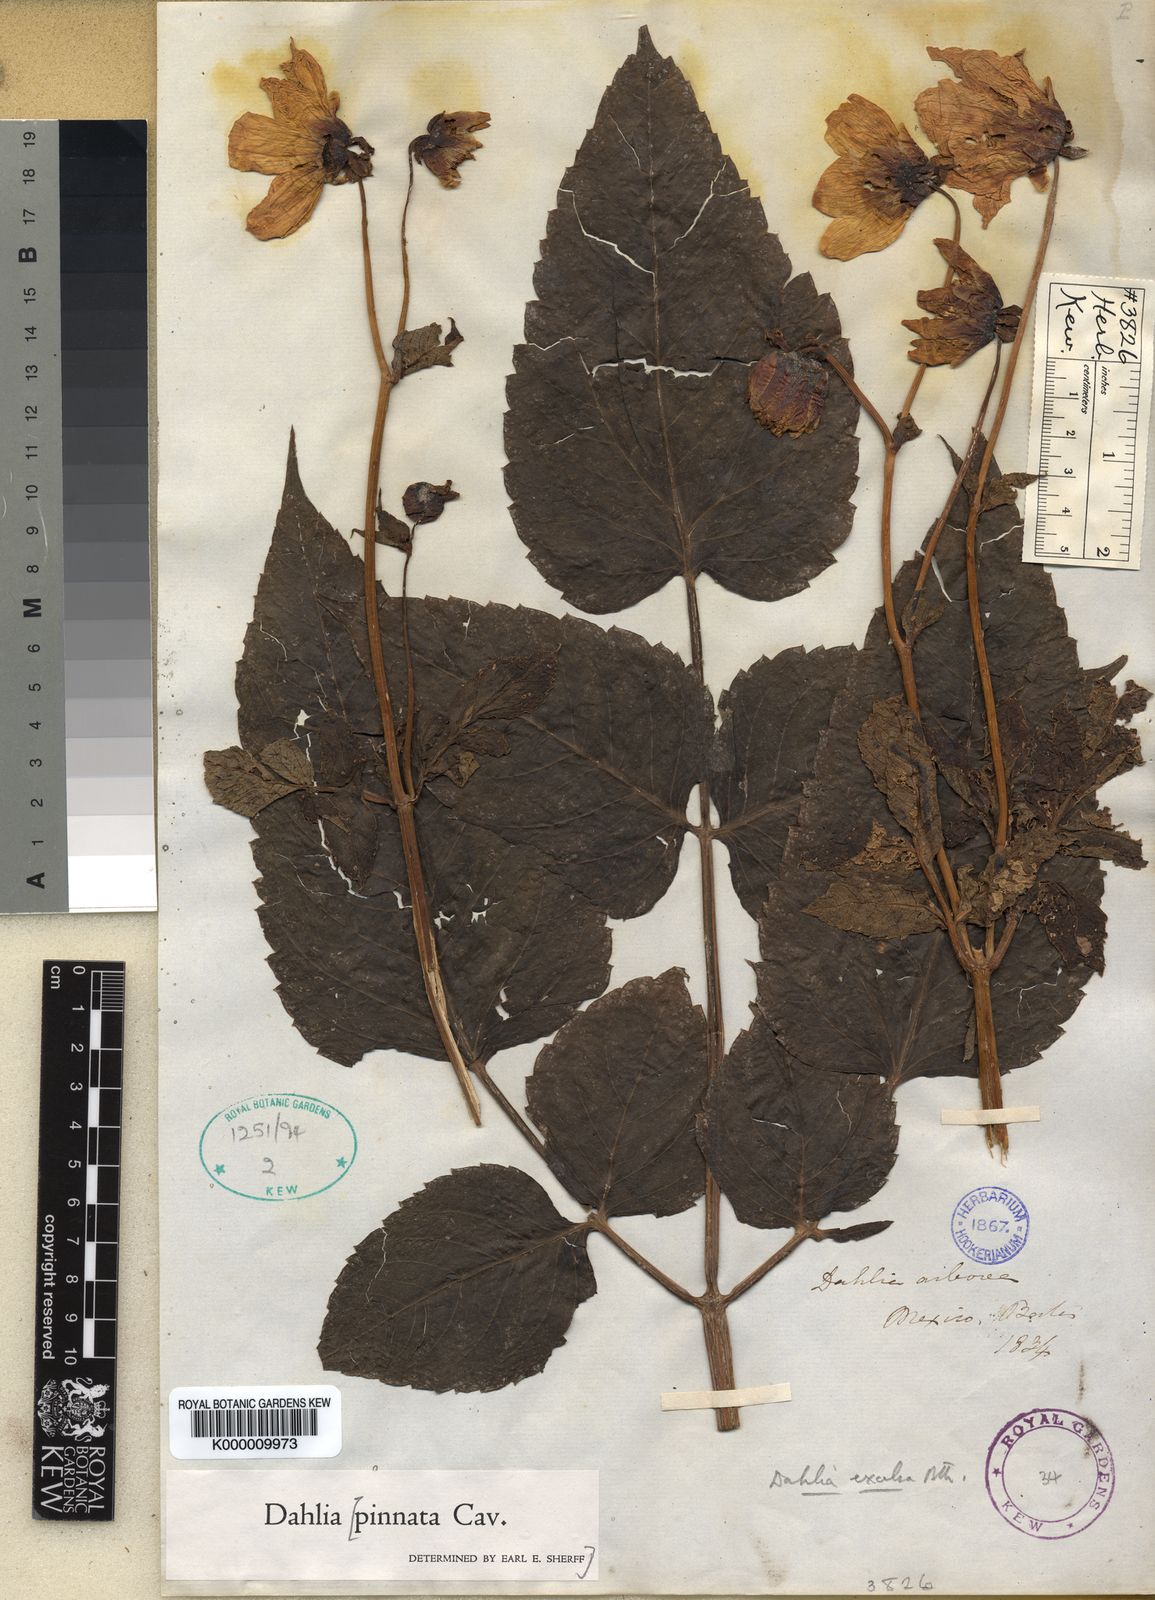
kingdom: Plantae
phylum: Tracheophyta
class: Magnoliopsida
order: Asterales
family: Asteraceae
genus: Dahlia
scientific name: Dahlia excelsa
